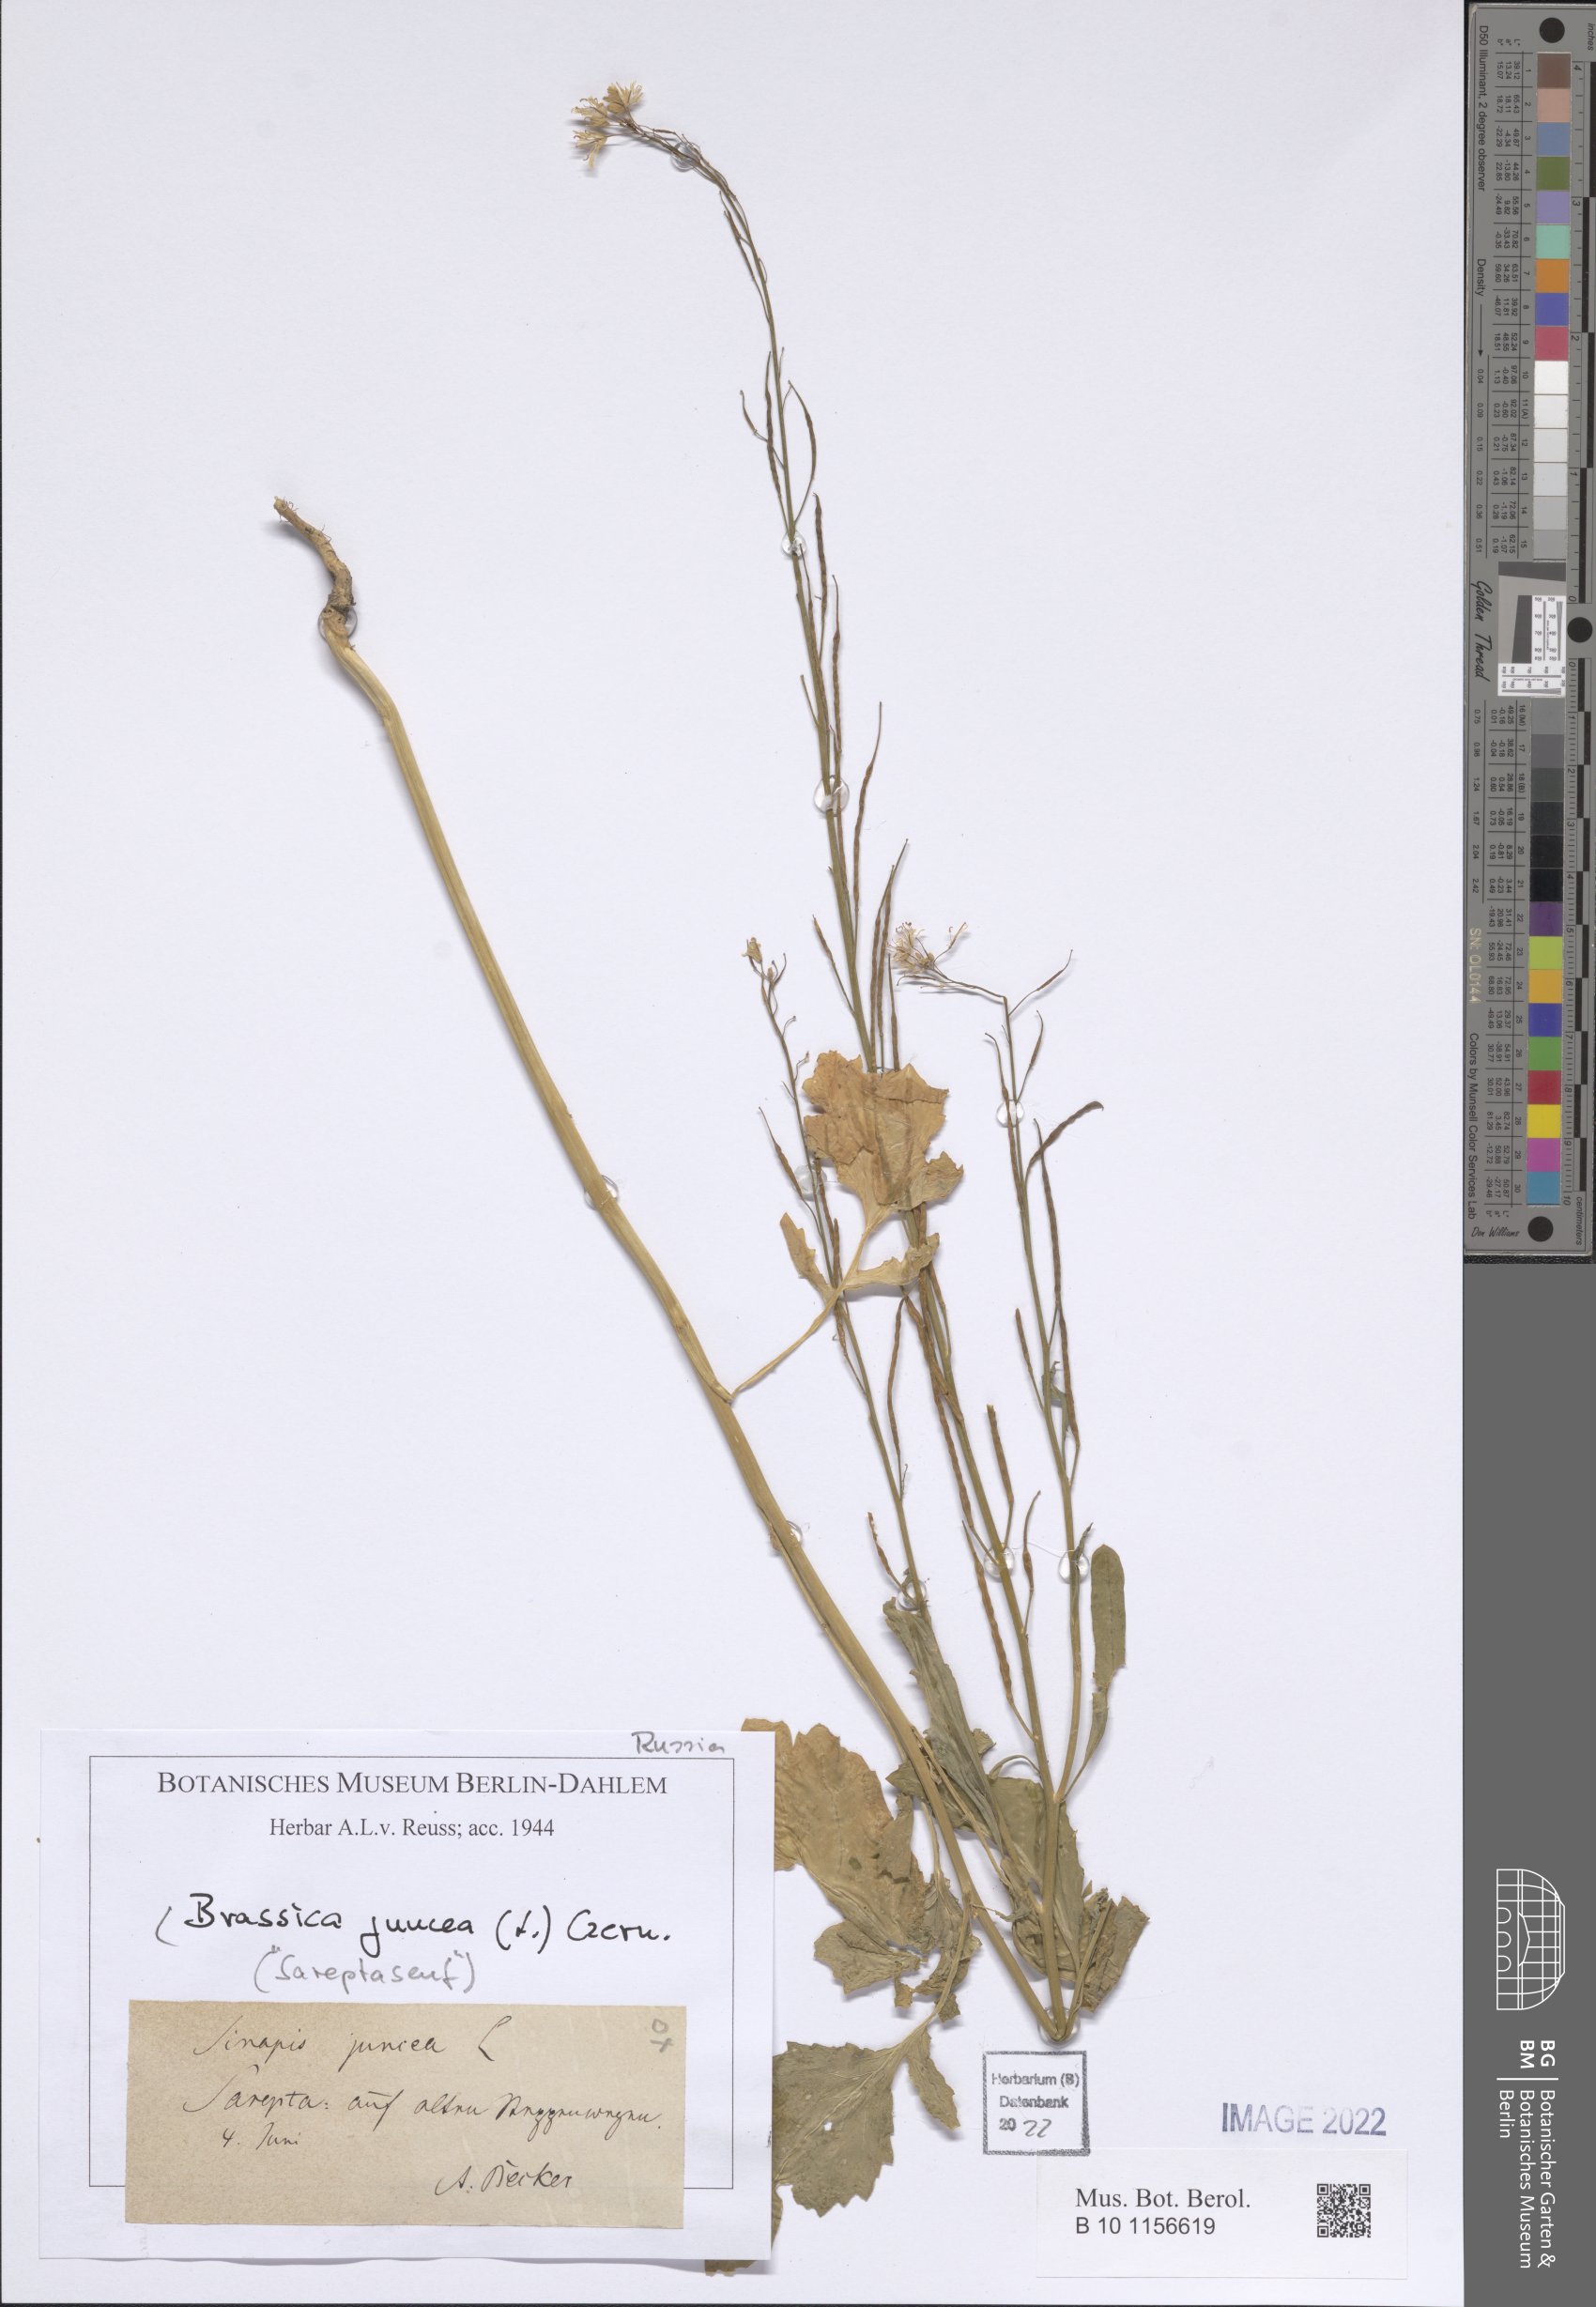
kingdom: Plantae
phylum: Tracheophyta
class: Magnoliopsida
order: Brassicales
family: Brassicaceae
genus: Brassica
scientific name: Brassica juncea
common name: Brown mustard
